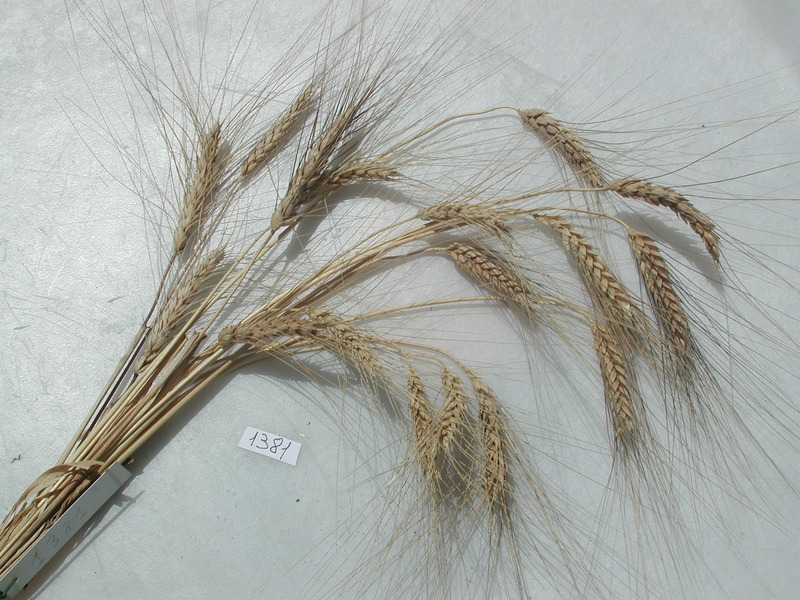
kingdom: Plantae
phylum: Tracheophyta
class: Liliopsida
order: Poales
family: Poaceae
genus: Triticum
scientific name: Triticum turgidum
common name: Wheat
